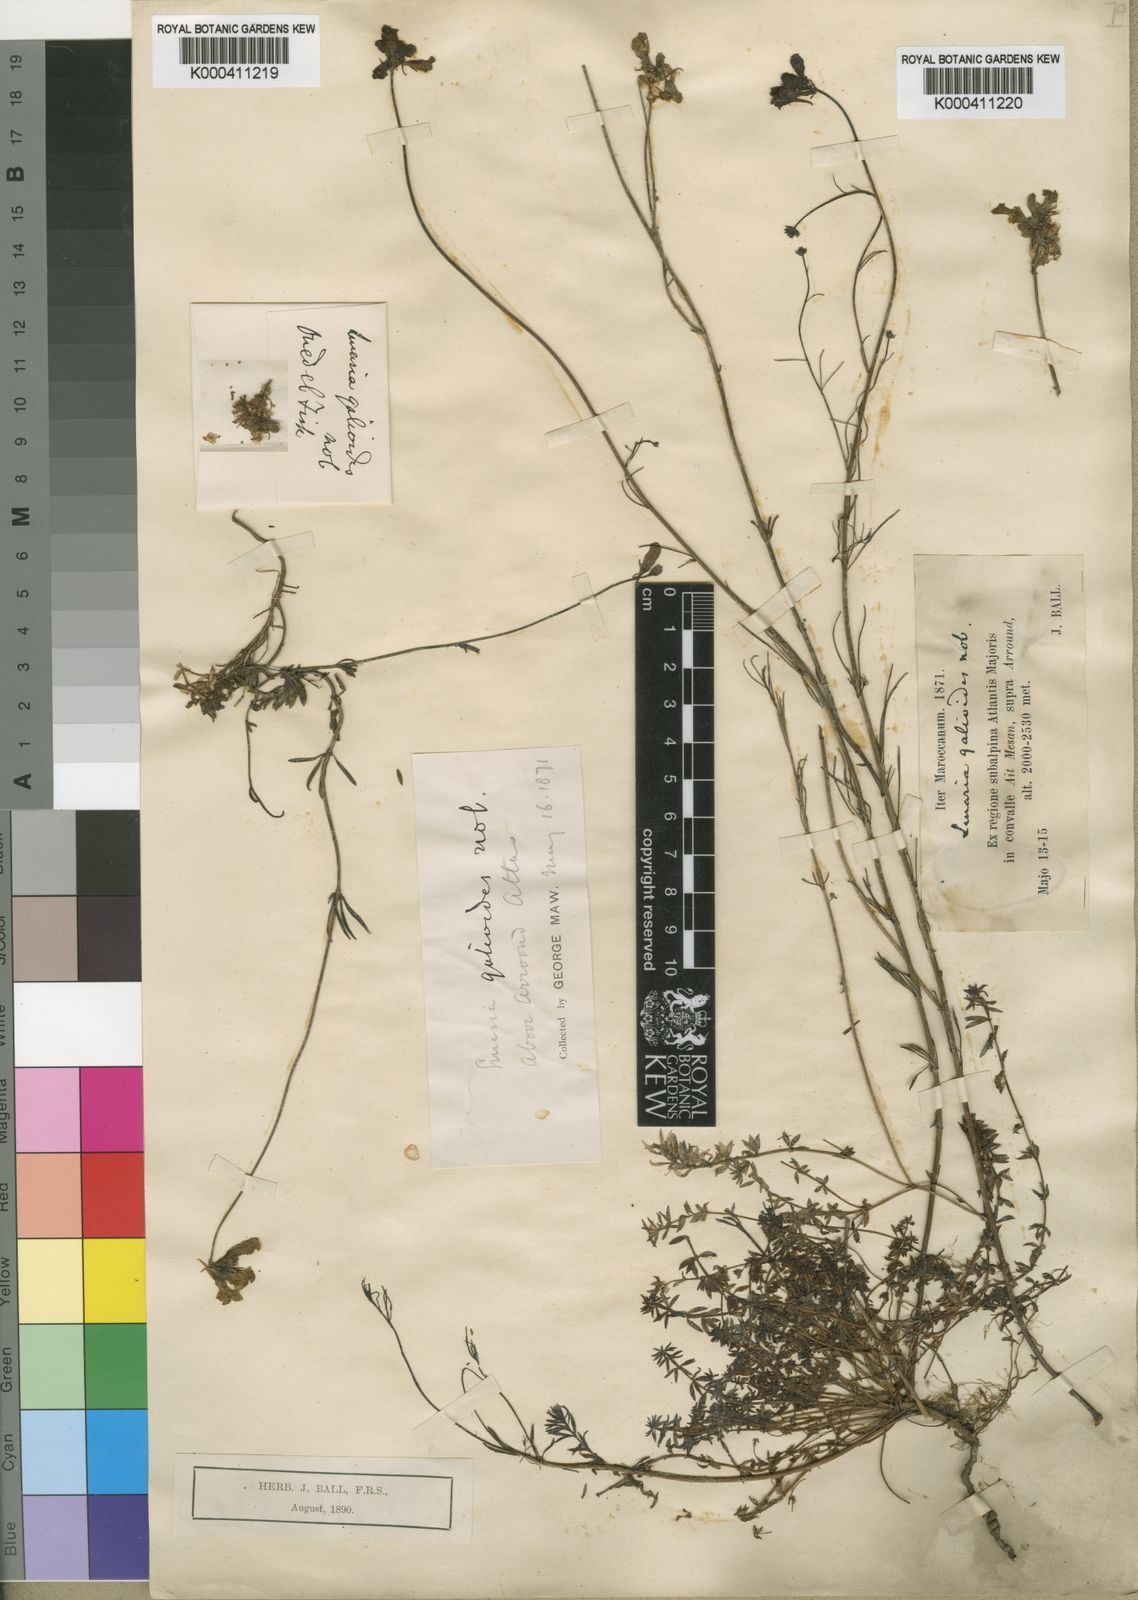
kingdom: Plantae
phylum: Tracheophyta
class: Magnoliopsida
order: Lamiales
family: Plantaginaceae
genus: Linaria
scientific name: Linaria
